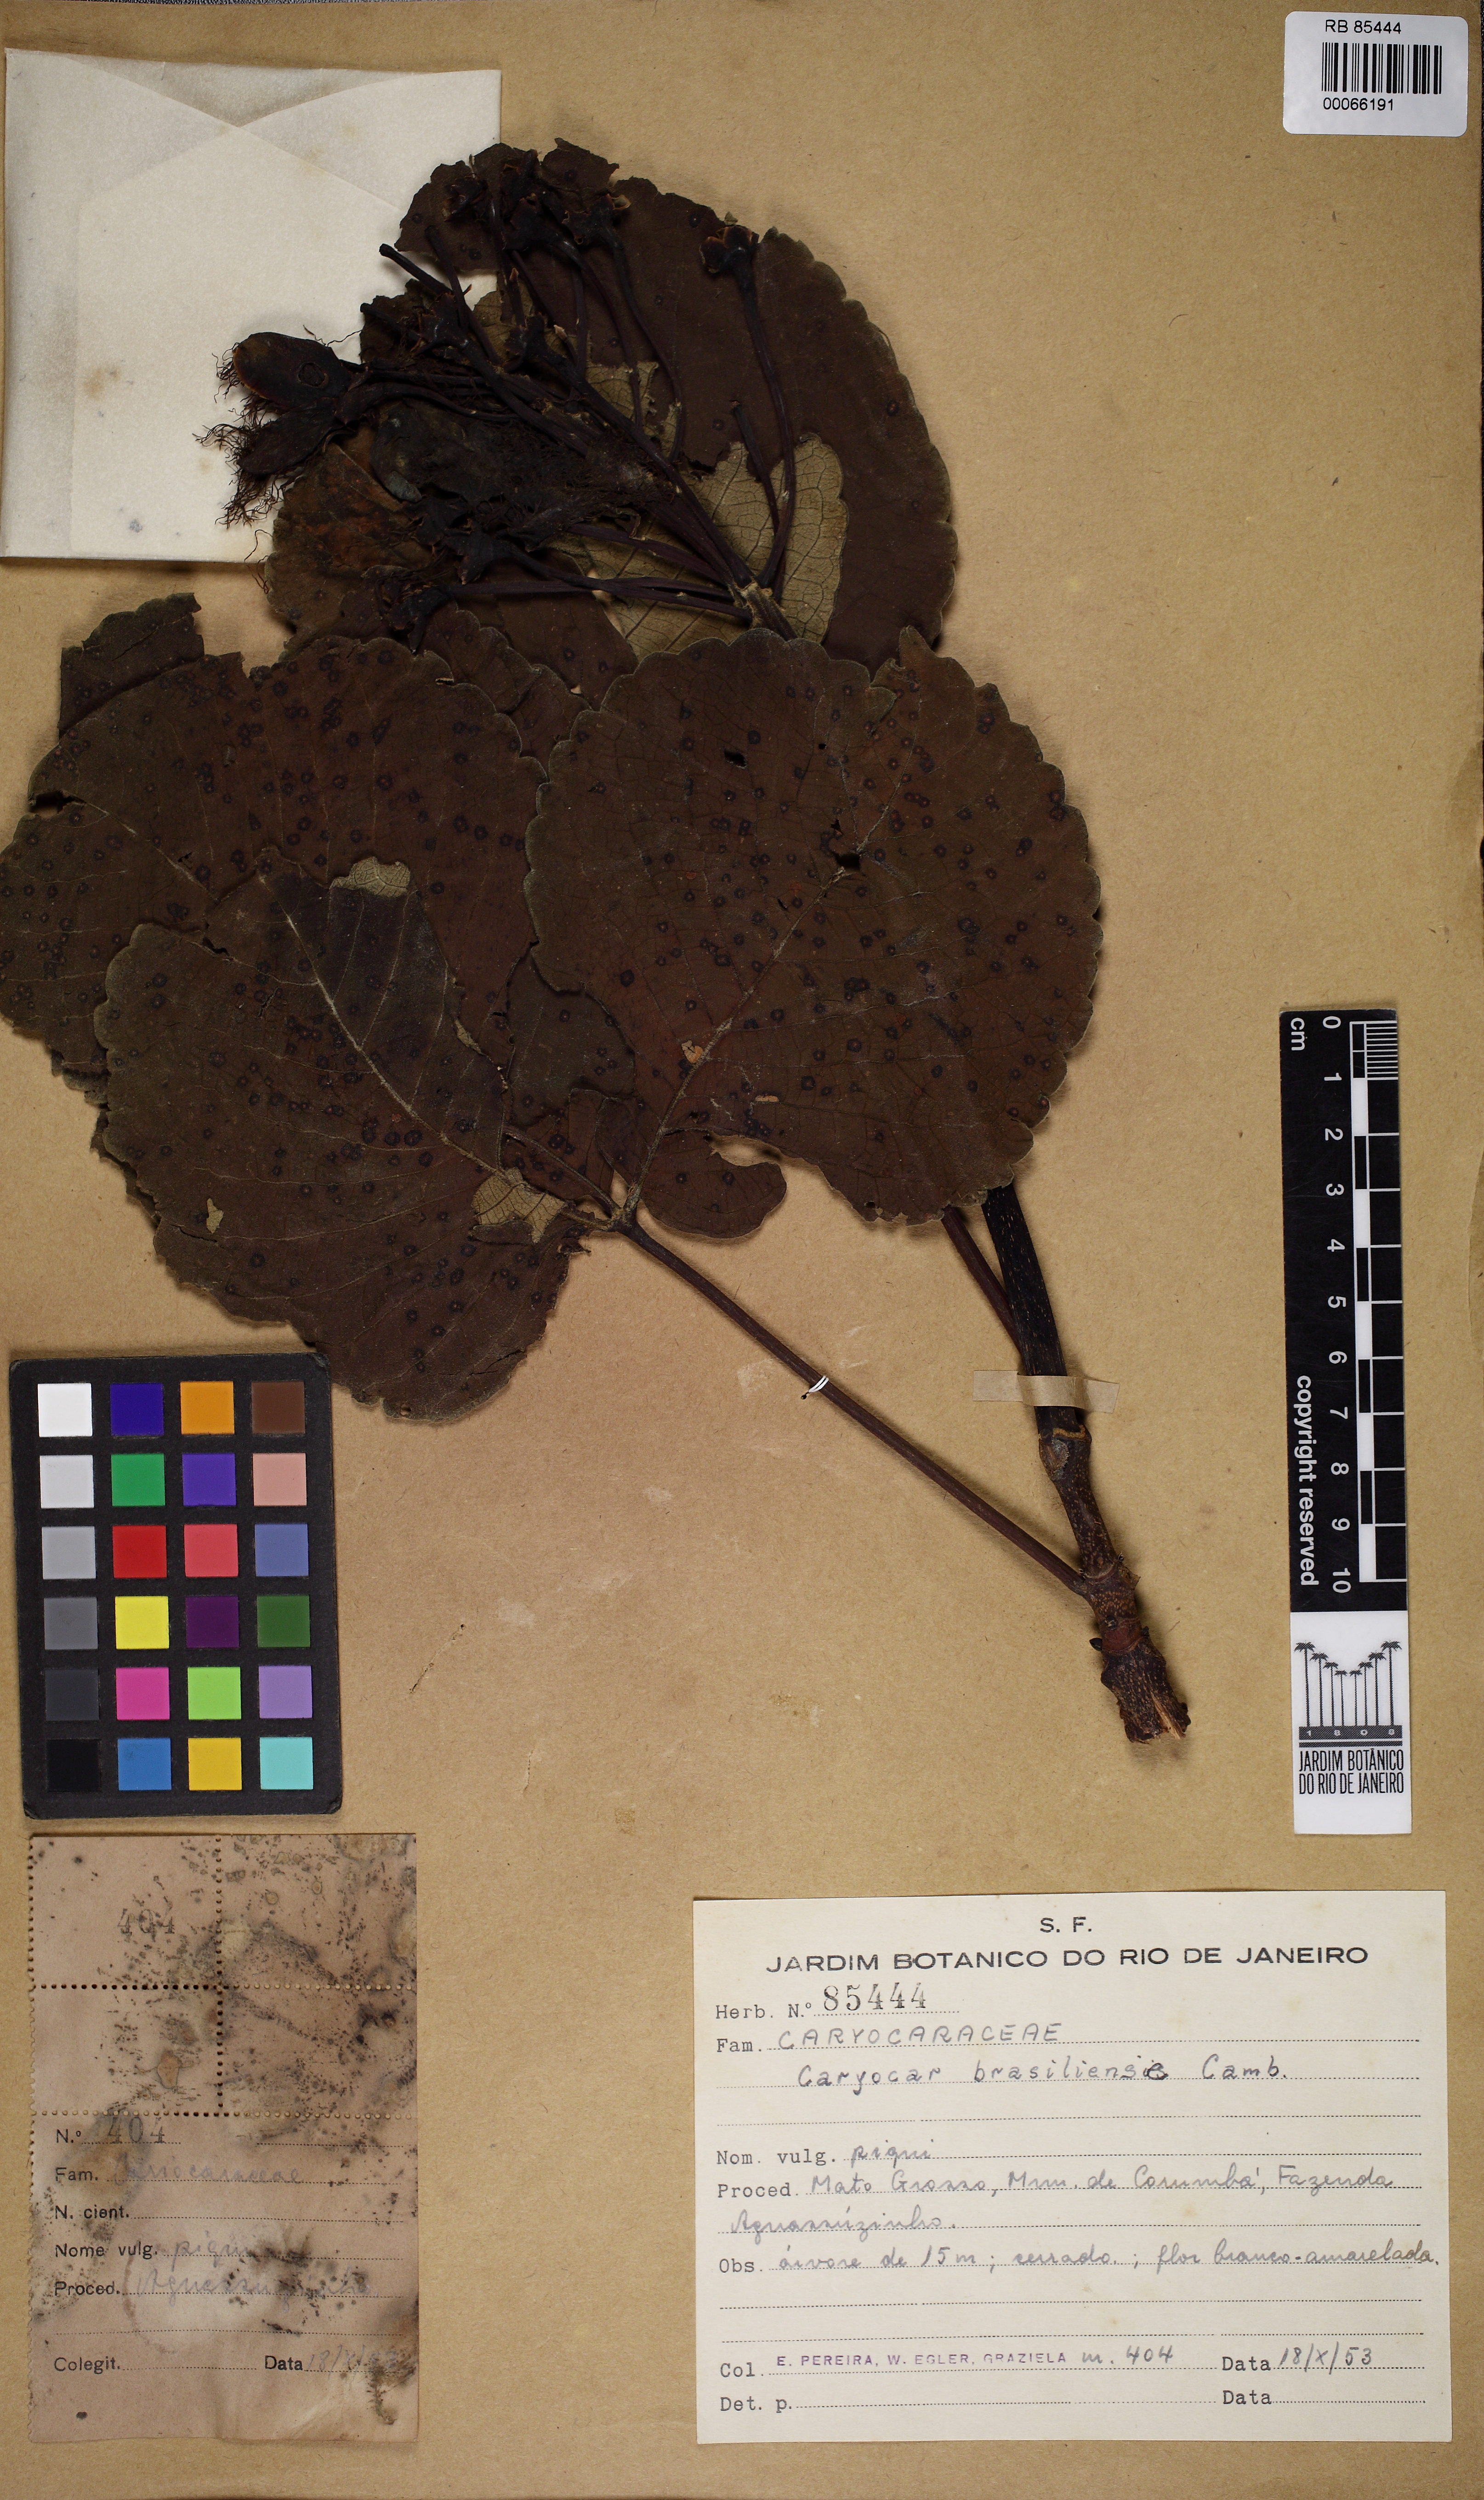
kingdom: Plantae
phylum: Tracheophyta
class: Magnoliopsida
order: Malpighiales
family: Caryocaraceae
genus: Caryocar
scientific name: Caryocar brasiliense
